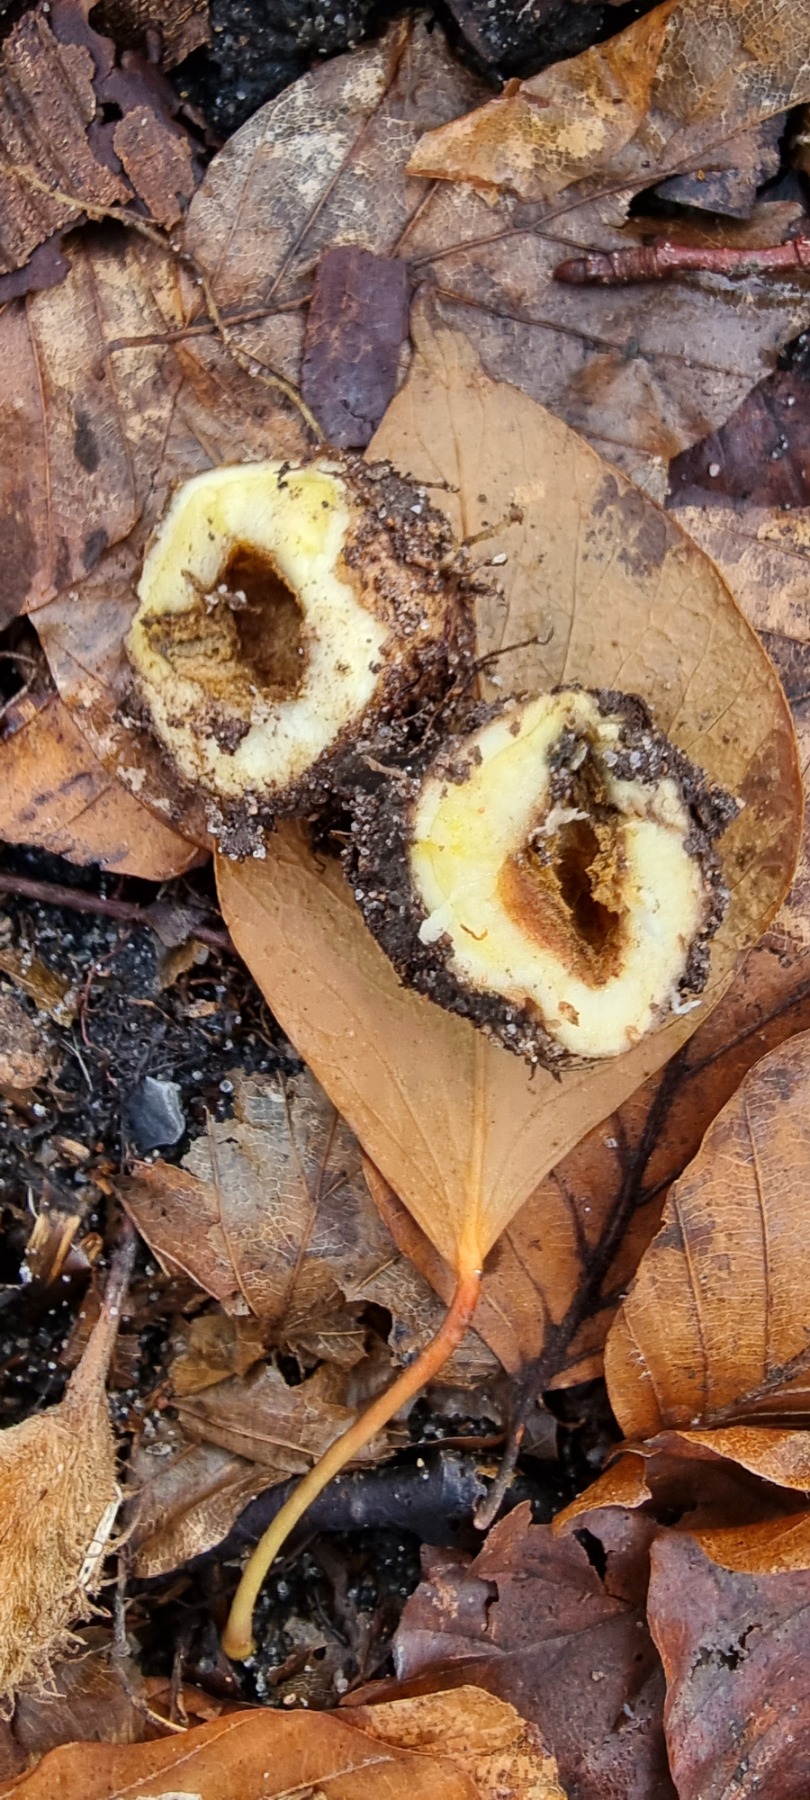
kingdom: Plantae
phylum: Tracheophyta
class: Magnoliopsida
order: Ranunculales
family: Papaveraceae
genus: Corydalis
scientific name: Corydalis cava
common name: Hulrodet lærkespore
